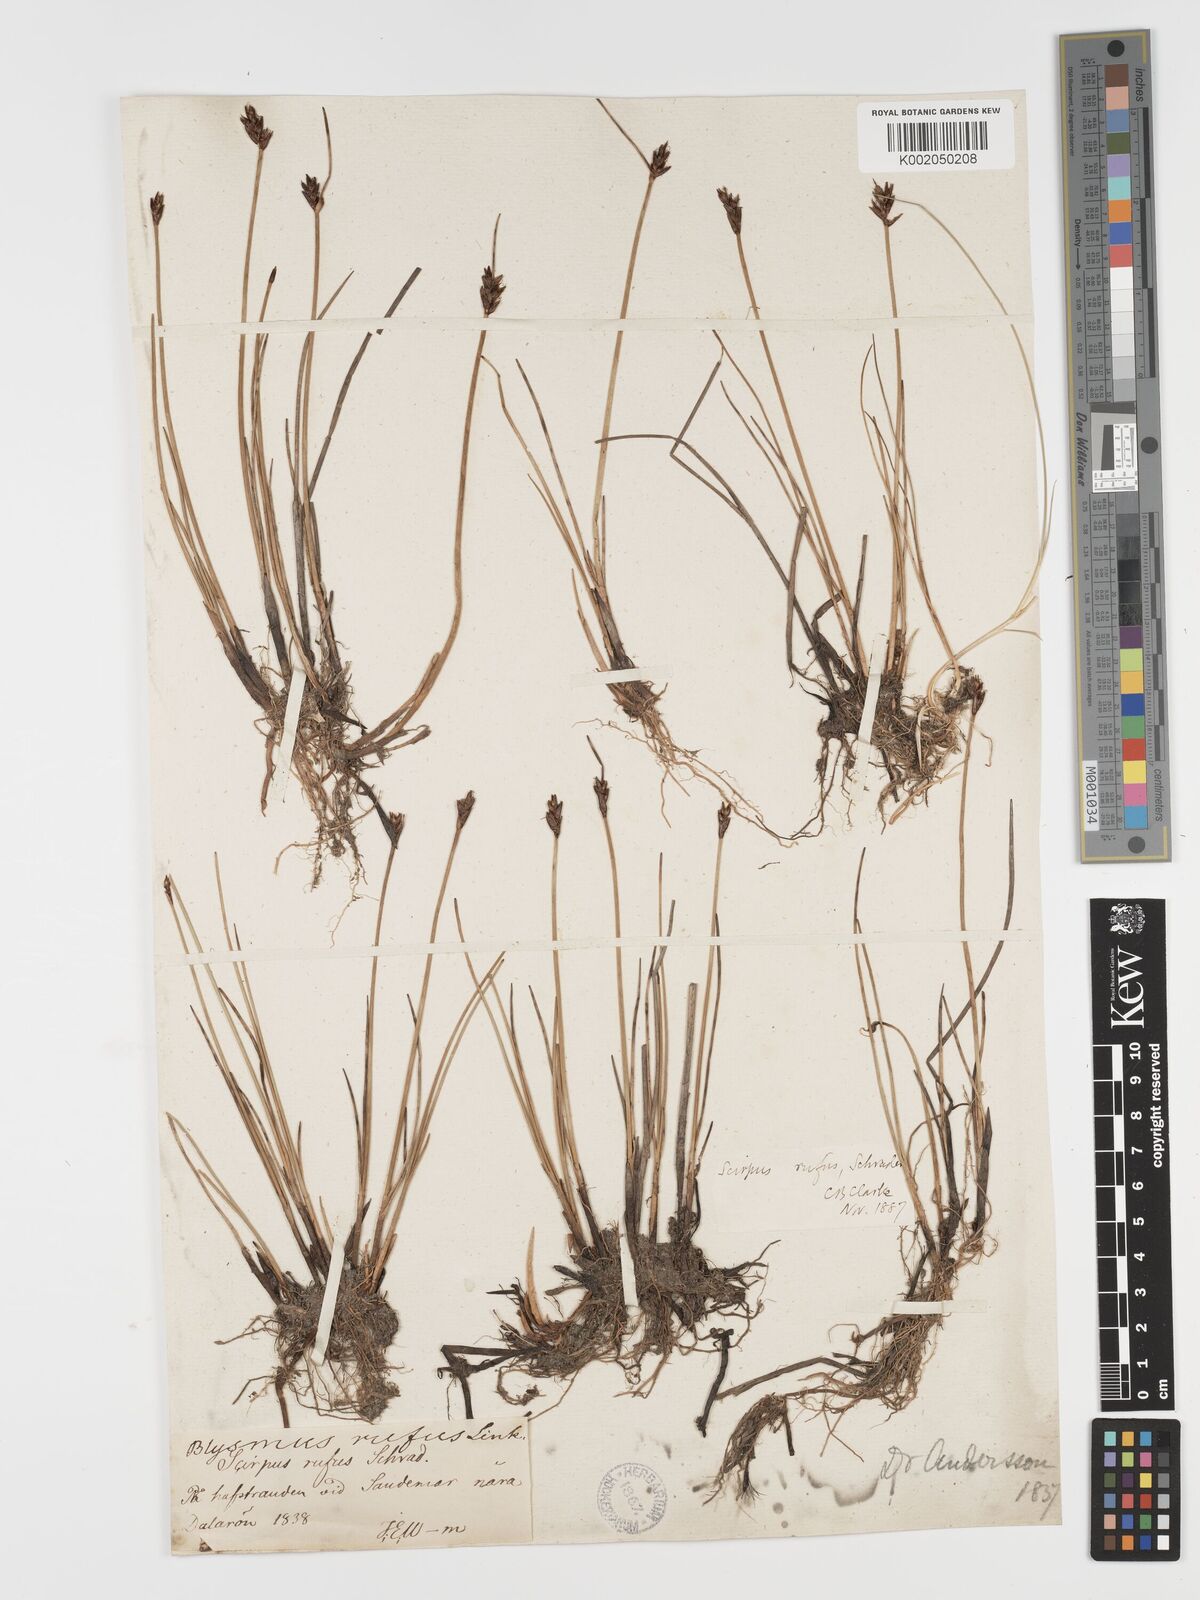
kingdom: Plantae
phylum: Tracheophyta
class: Liliopsida
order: Poales
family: Cyperaceae
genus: Blysmus
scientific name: Blysmus rufus
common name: Saltmarsh flat-sedge
